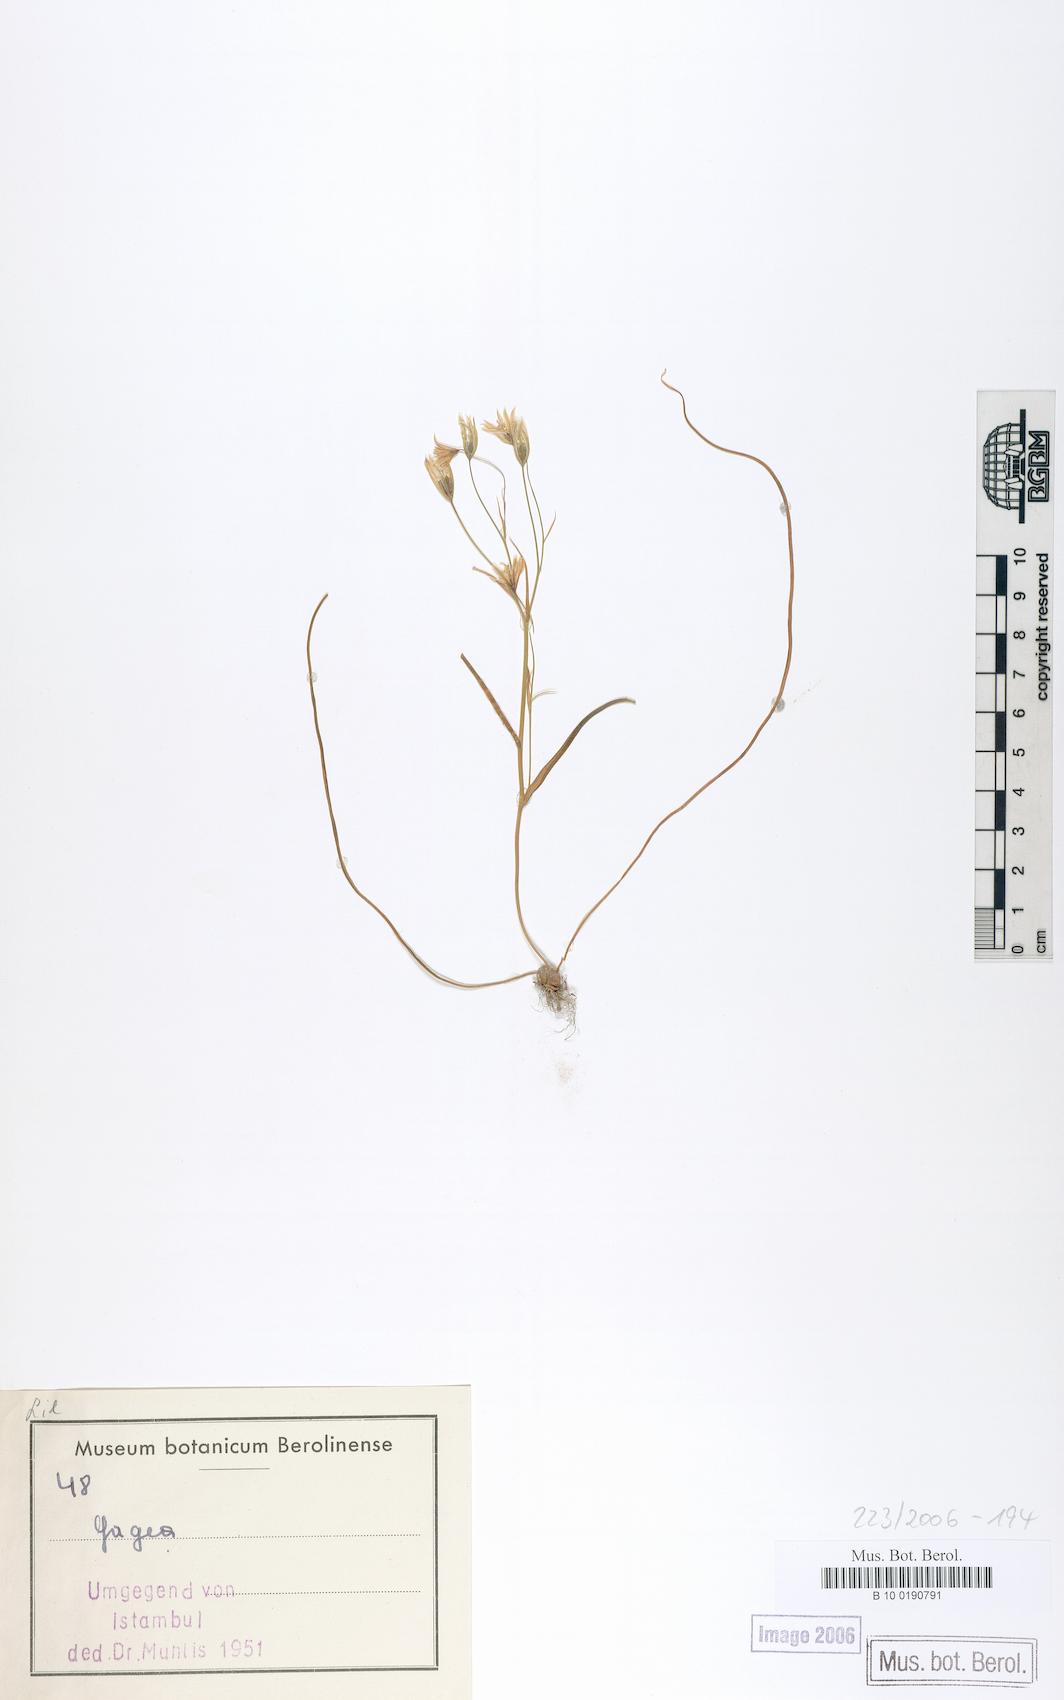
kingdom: Plantae
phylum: Tracheophyta
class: Liliopsida
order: Liliales
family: Liliaceae
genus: Gagea
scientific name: Gagea
